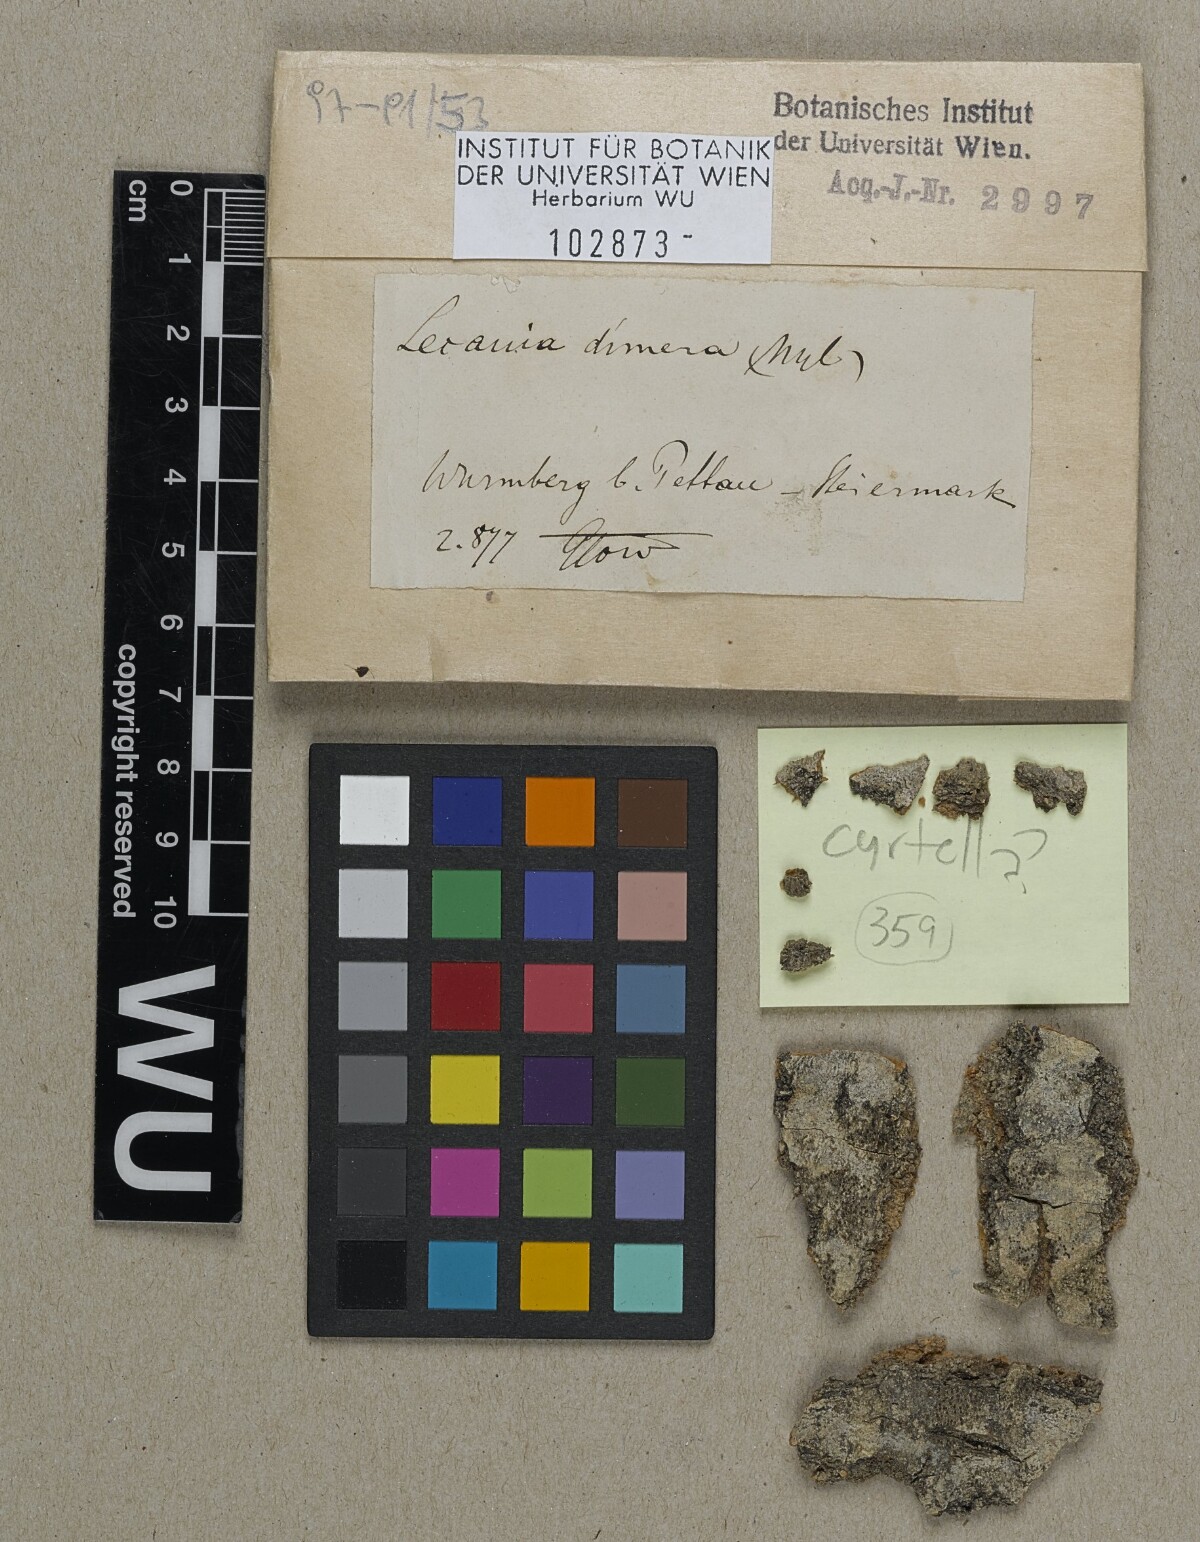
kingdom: Fungi
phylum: Ascomycota
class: Lecanoromycetes
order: Lecanorales
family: Ramalinaceae
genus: Lecania
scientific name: Lecania dubitans
